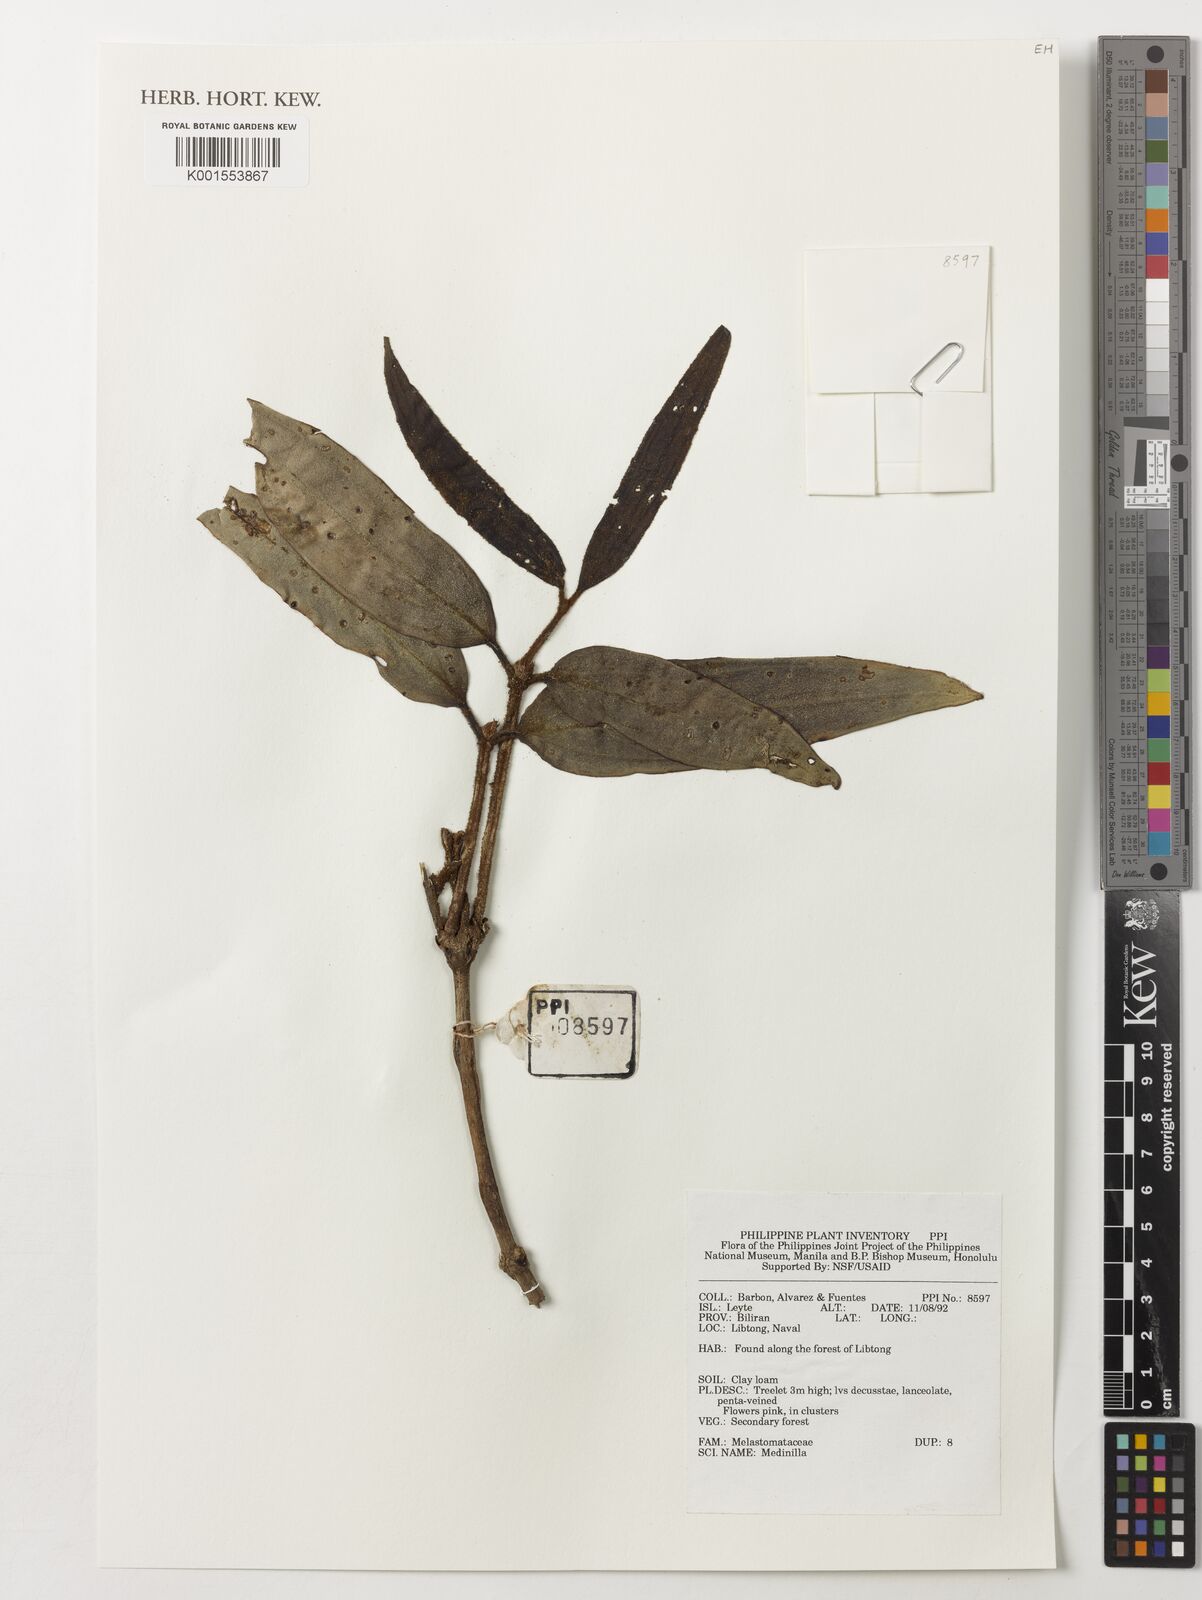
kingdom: Plantae
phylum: Tracheophyta
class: Magnoliopsida
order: Myrtales
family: Melastomataceae
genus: Medinilla
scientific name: Medinilla
